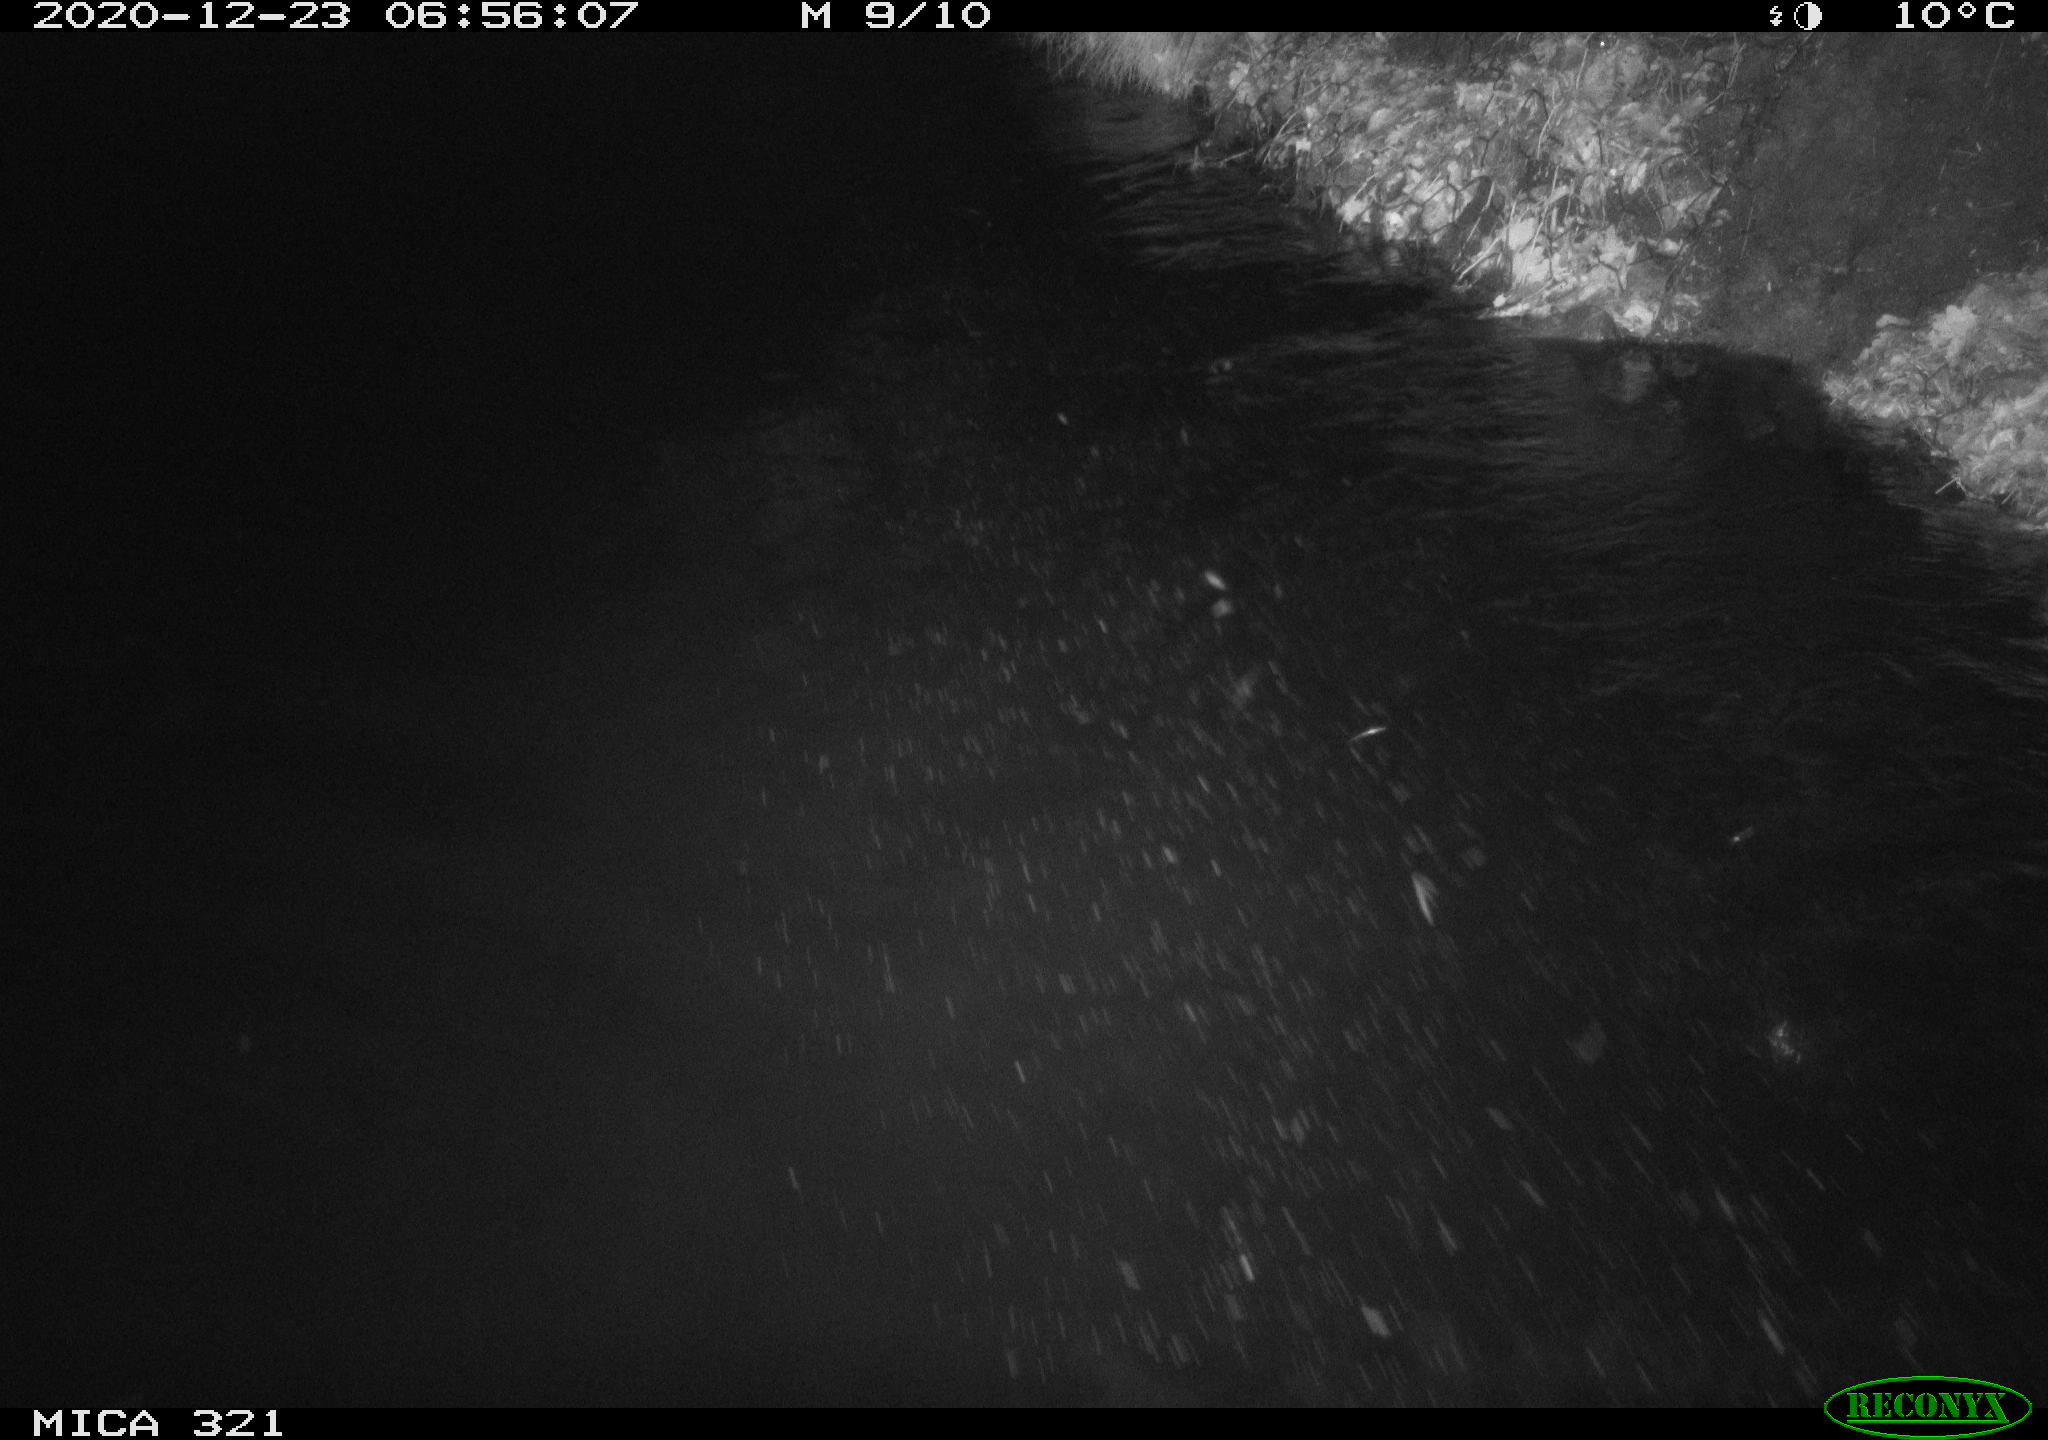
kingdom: Animalia
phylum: Chordata
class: Aves
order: Anseriformes
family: Anatidae
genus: Anas
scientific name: Anas platyrhynchos
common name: Mallard
